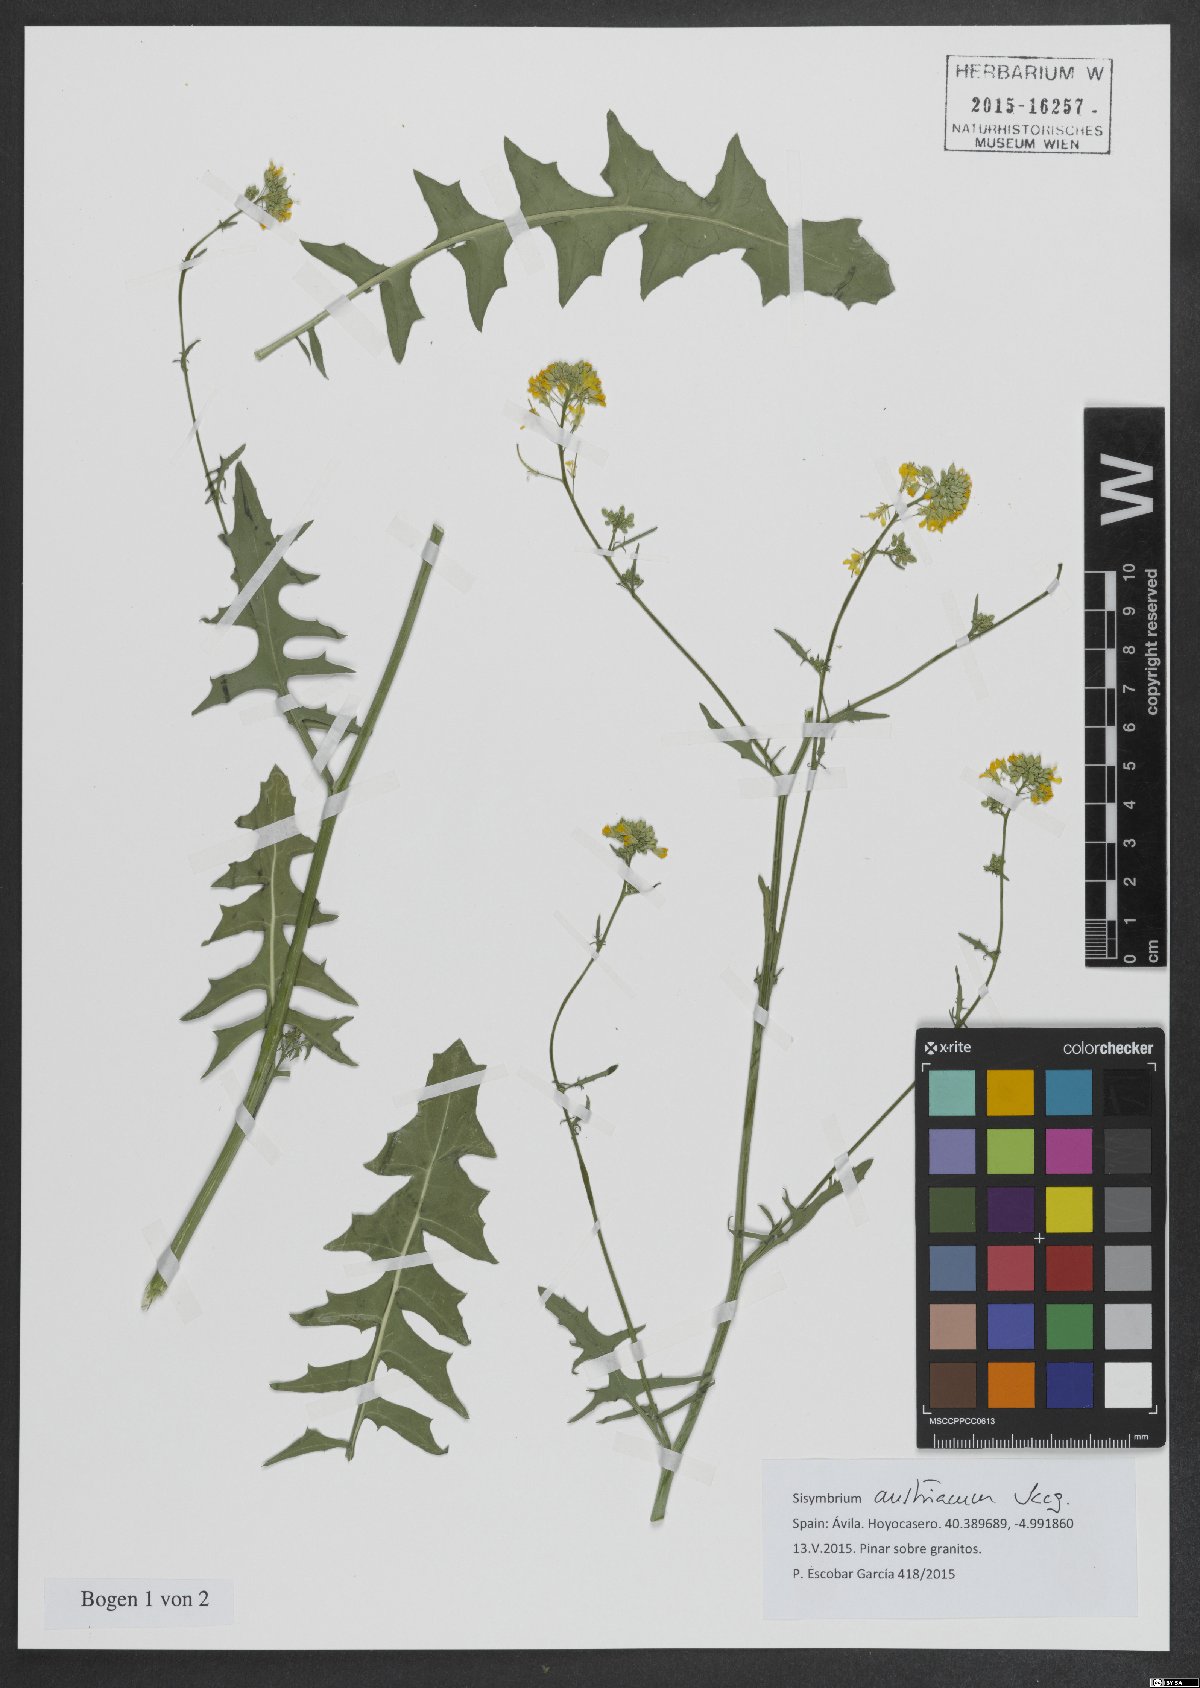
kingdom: Plantae
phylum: Tracheophyta
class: Magnoliopsida
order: Brassicales
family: Brassicaceae
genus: Sisymbrium
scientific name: Sisymbrium austriacum
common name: Jeweled rocket
